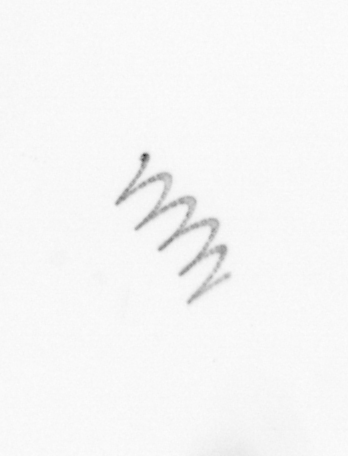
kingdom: Chromista
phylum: Ochrophyta
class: Bacillariophyceae
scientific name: Bacillariophyceae
